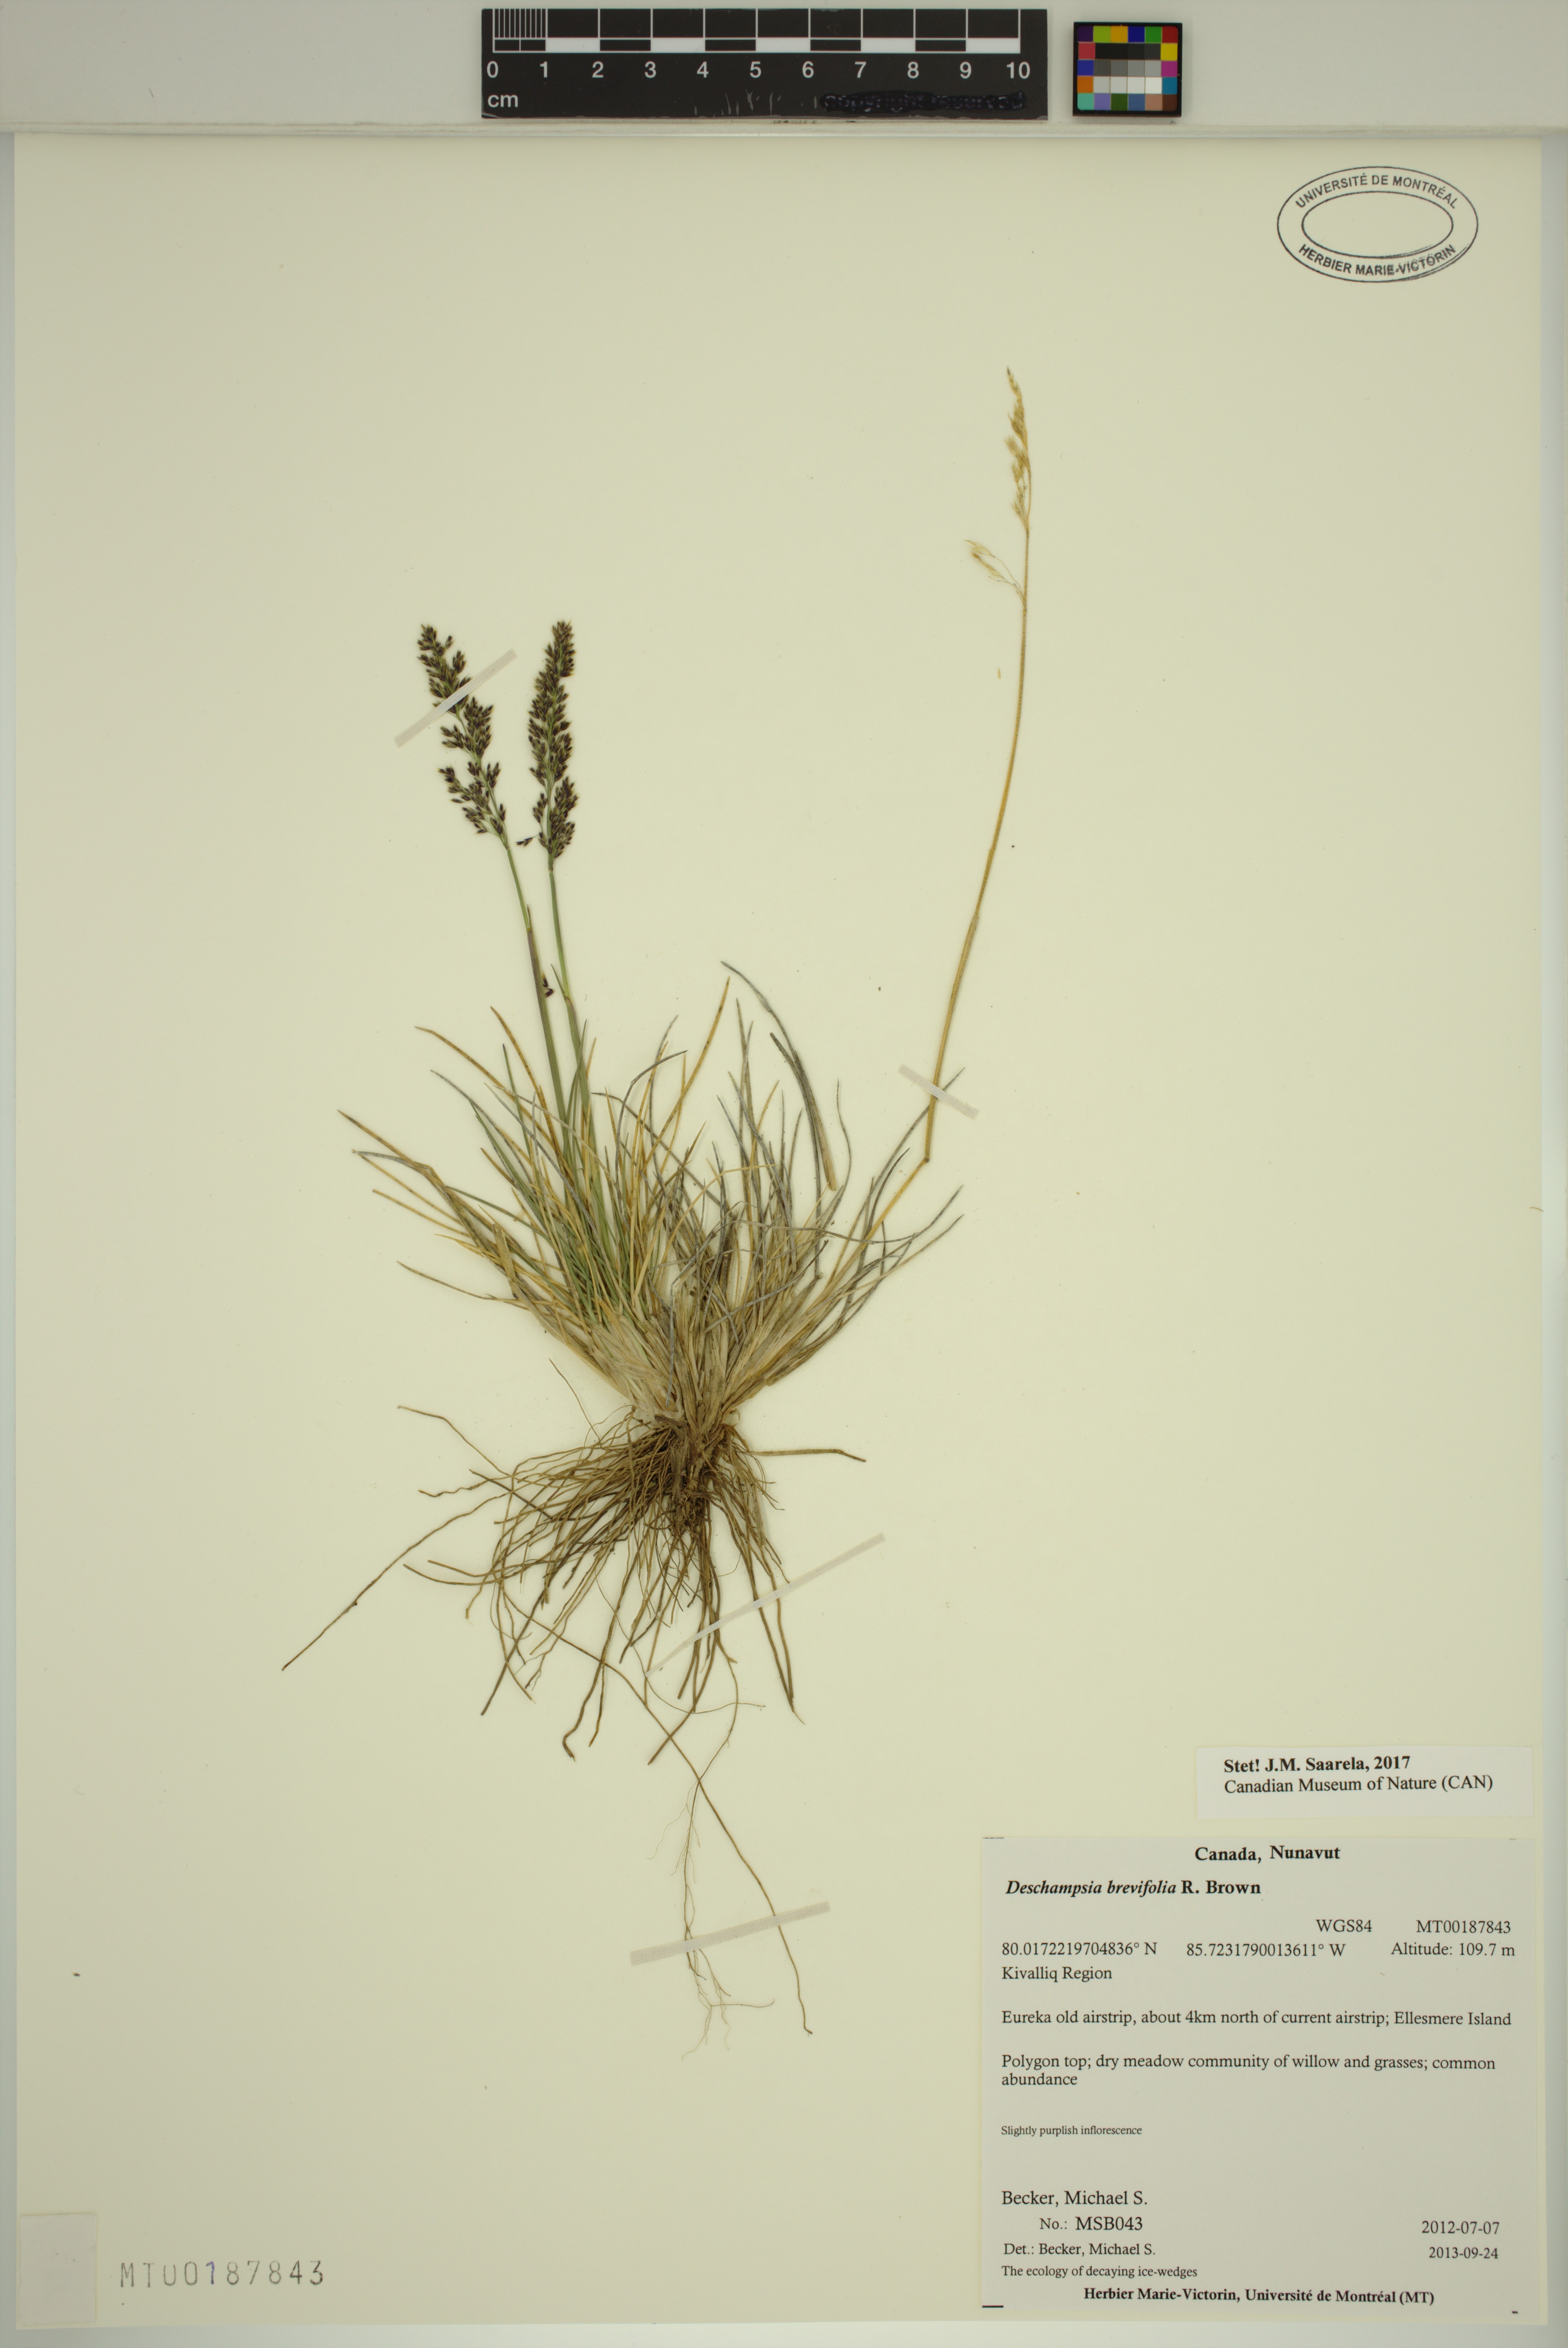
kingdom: Plantae
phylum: Tracheophyta
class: Liliopsida
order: Poales
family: Poaceae
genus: Deschampsia
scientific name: Deschampsia cespitosa
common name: Tufted hair-grass
